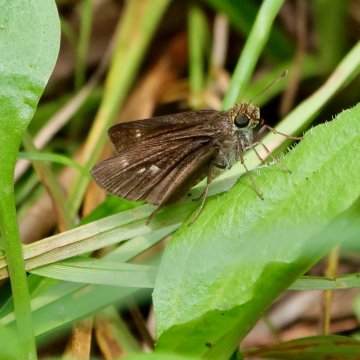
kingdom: Animalia
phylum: Arthropoda
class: Insecta
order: Lepidoptera
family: Hesperiidae
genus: Euphyes
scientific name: Euphyes vestris
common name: Dun Skipper
